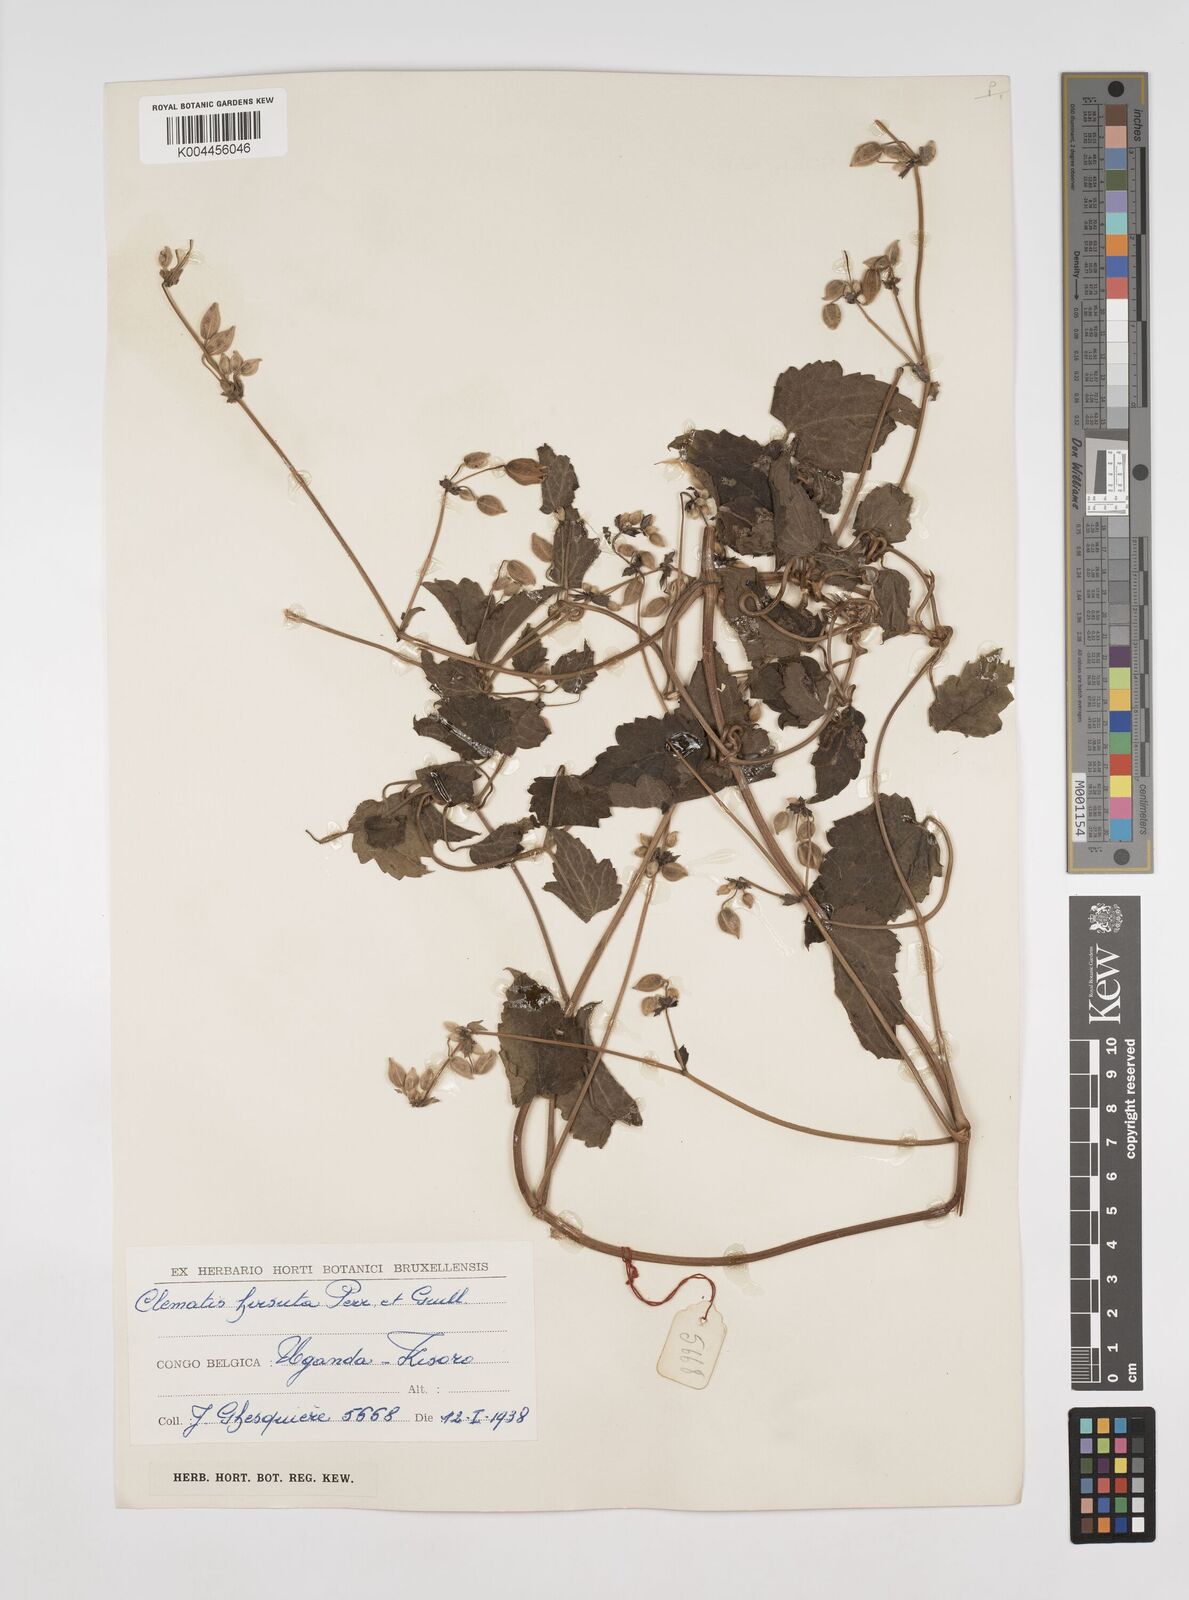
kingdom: Plantae
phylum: Tracheophyta
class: Magnoliopsida
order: Ranunculales
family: Ranunculaceae
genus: Clematis
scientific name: Clematis hirsuta
